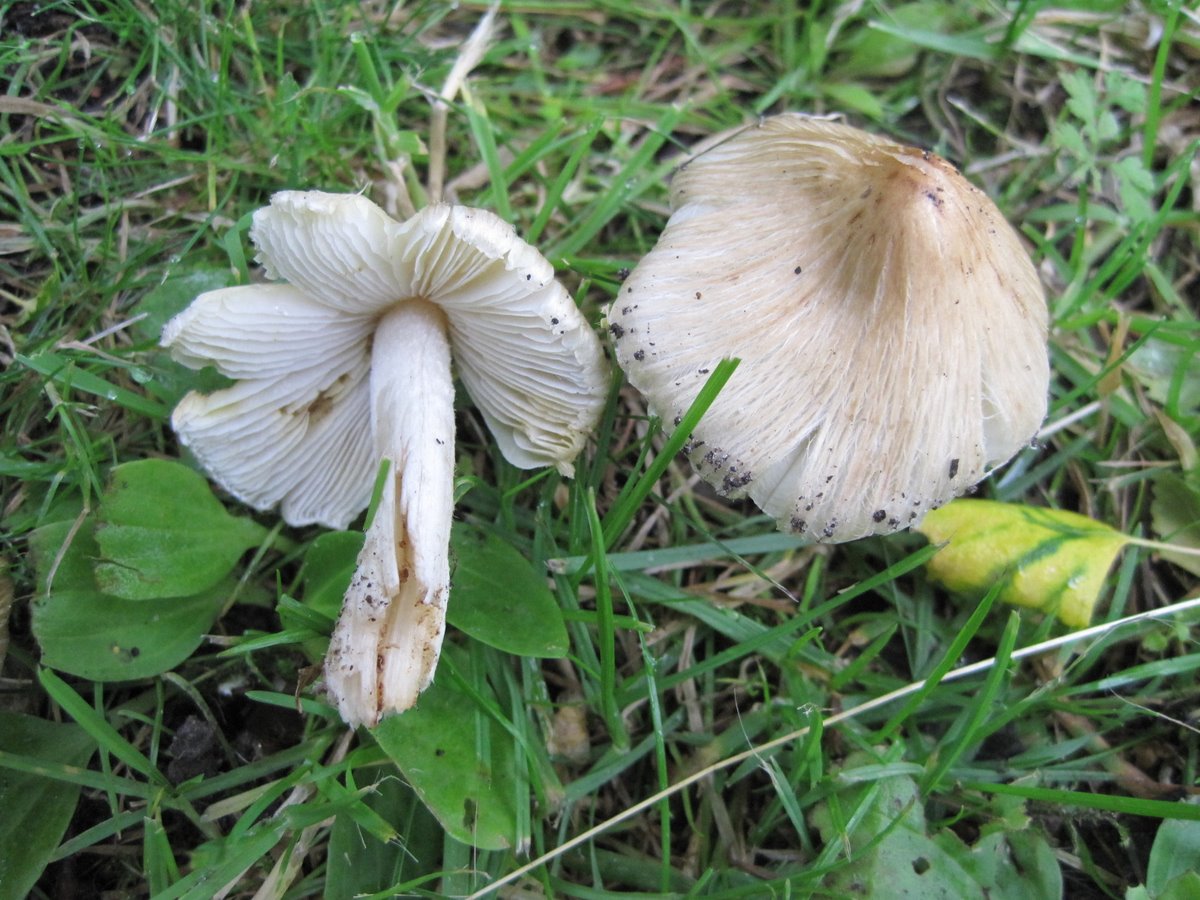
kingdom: Fungi
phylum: Basidiomycota
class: Agaricomycetes
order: Agaricales
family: Inocybaceae
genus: Pseudosperma
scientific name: Pseudosperma rimosum
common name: gulbladet trævlhat
